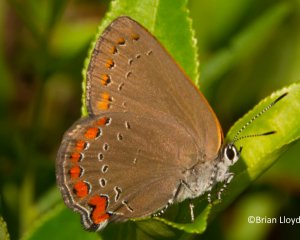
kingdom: Animalia
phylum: Arthropoda
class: Insecta
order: Lepidoptera
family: Lycaenidae
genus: Harkenclenus
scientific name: Harkenclenus titus
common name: Coral Hairstreak
